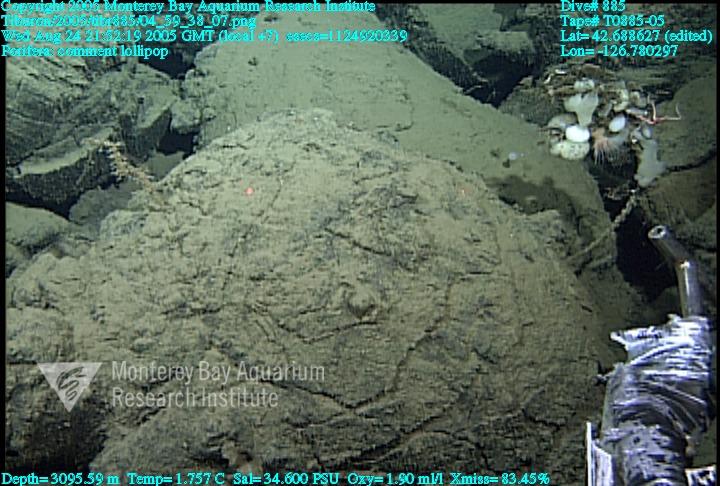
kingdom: Animalia
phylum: Porifera
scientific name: Porifera
